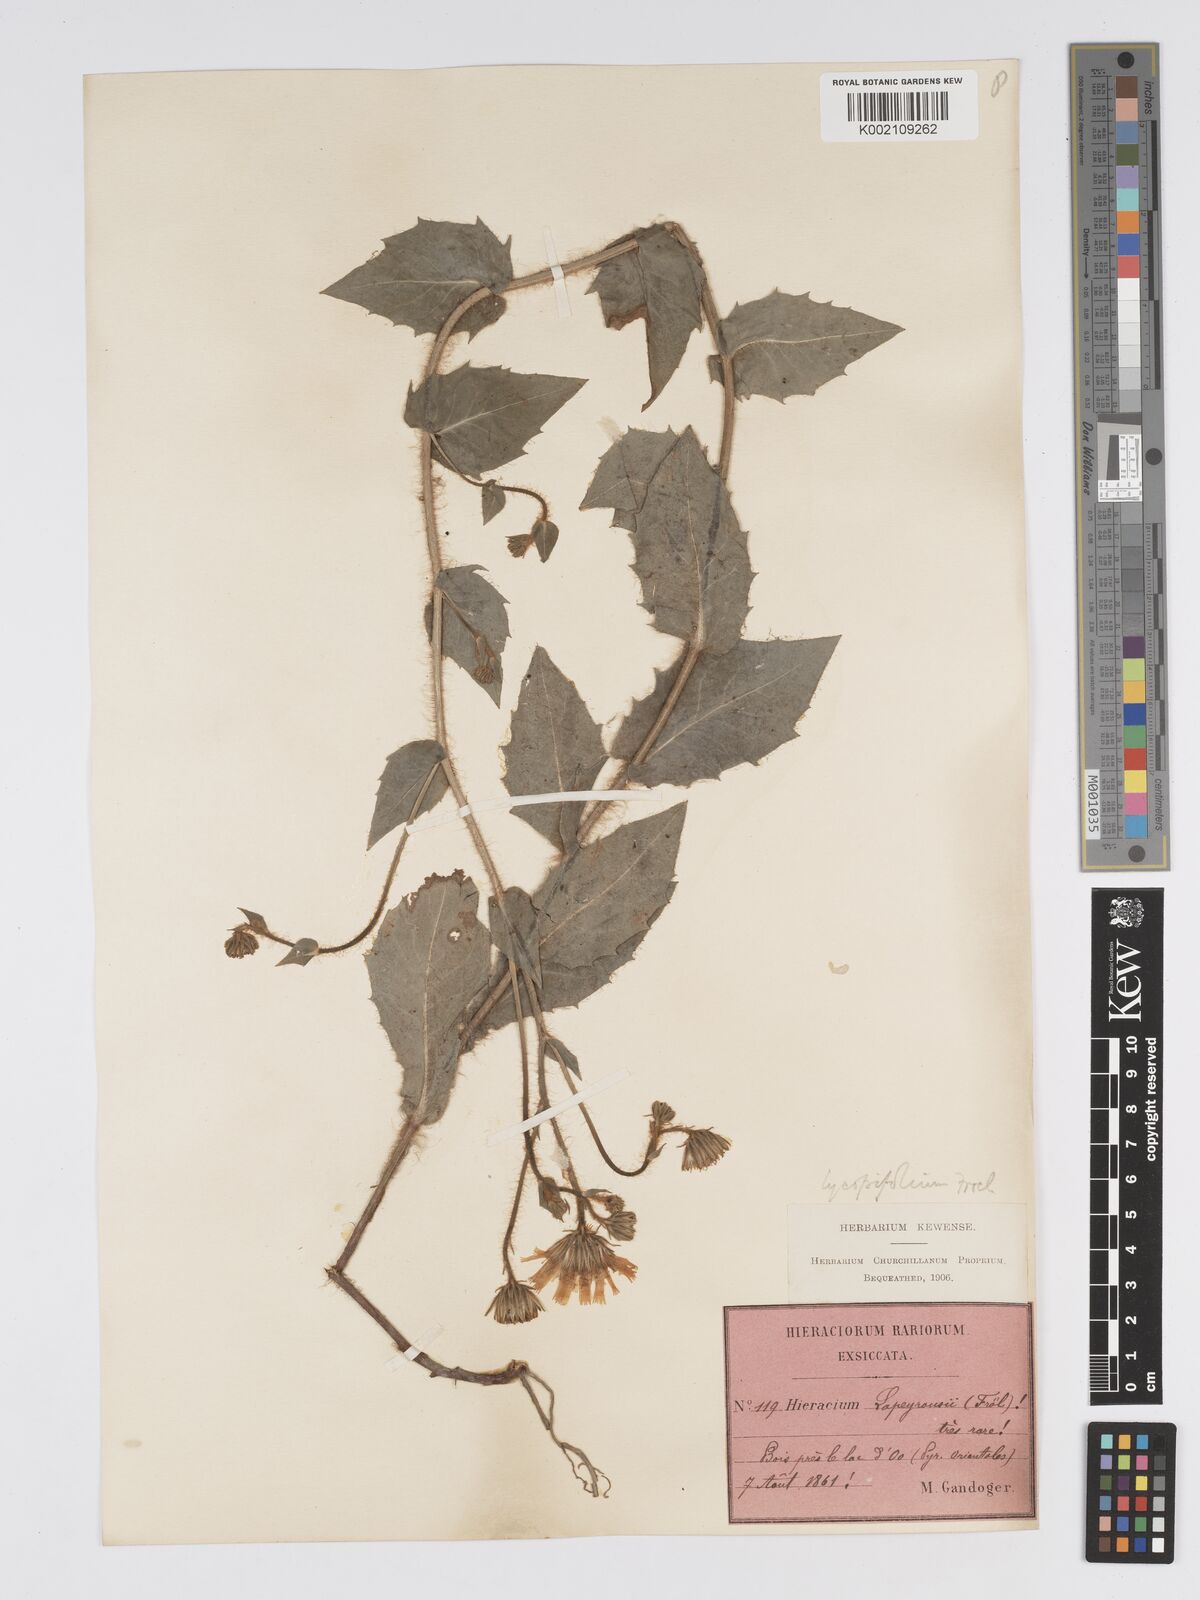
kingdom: Plantae
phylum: Tracheophyta
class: Magnoliopsida
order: Asterales
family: Asteraceae
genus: Hieracium
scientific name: Hieracium lycopifolium
